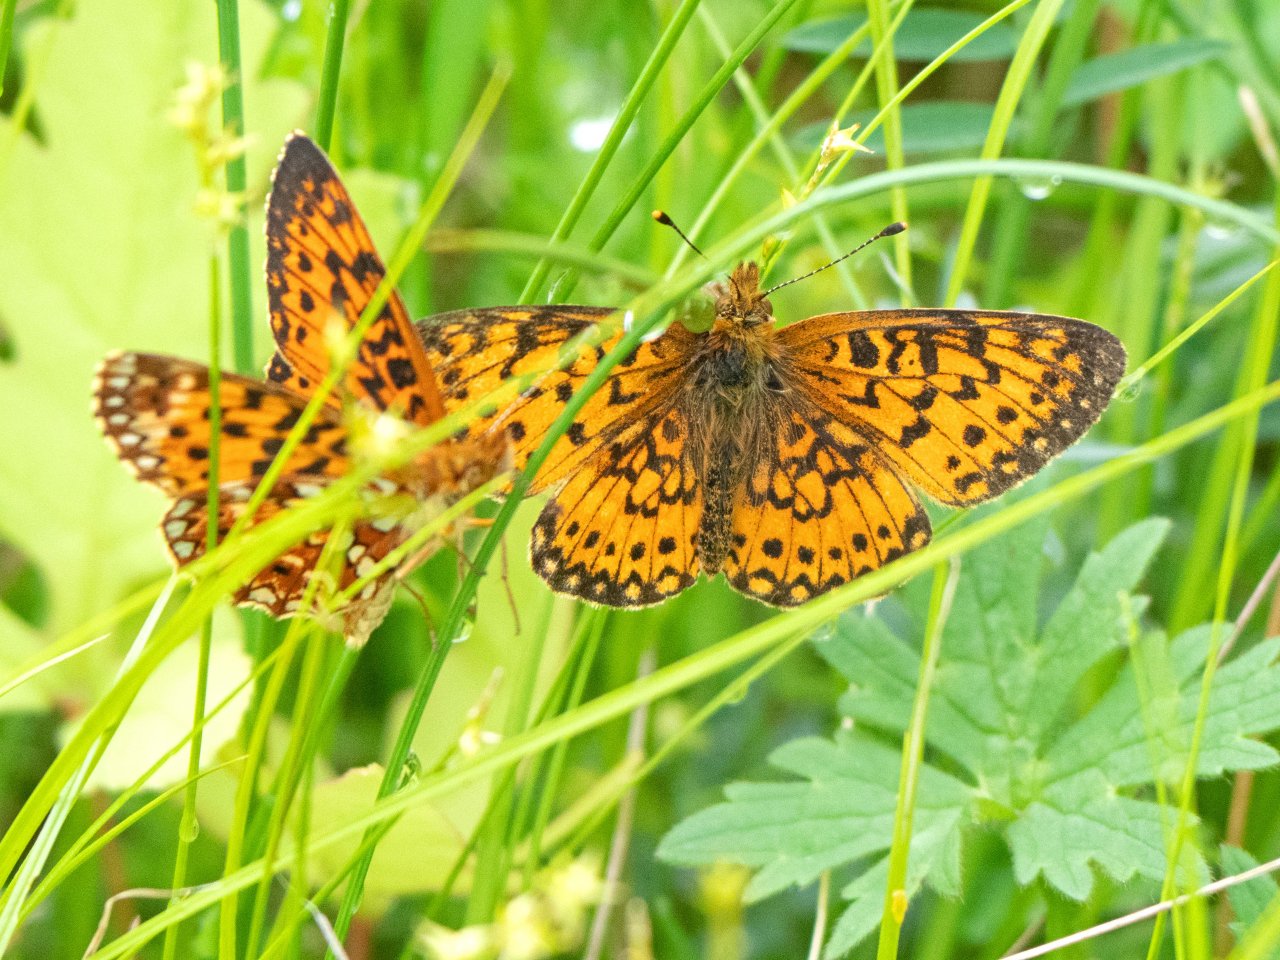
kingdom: Animalia
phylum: Arthropoda
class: Insecta
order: Lepidoptera
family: Nymphalidae
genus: Boloria
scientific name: Boloria selene
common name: Silver-bordered Fritillary
